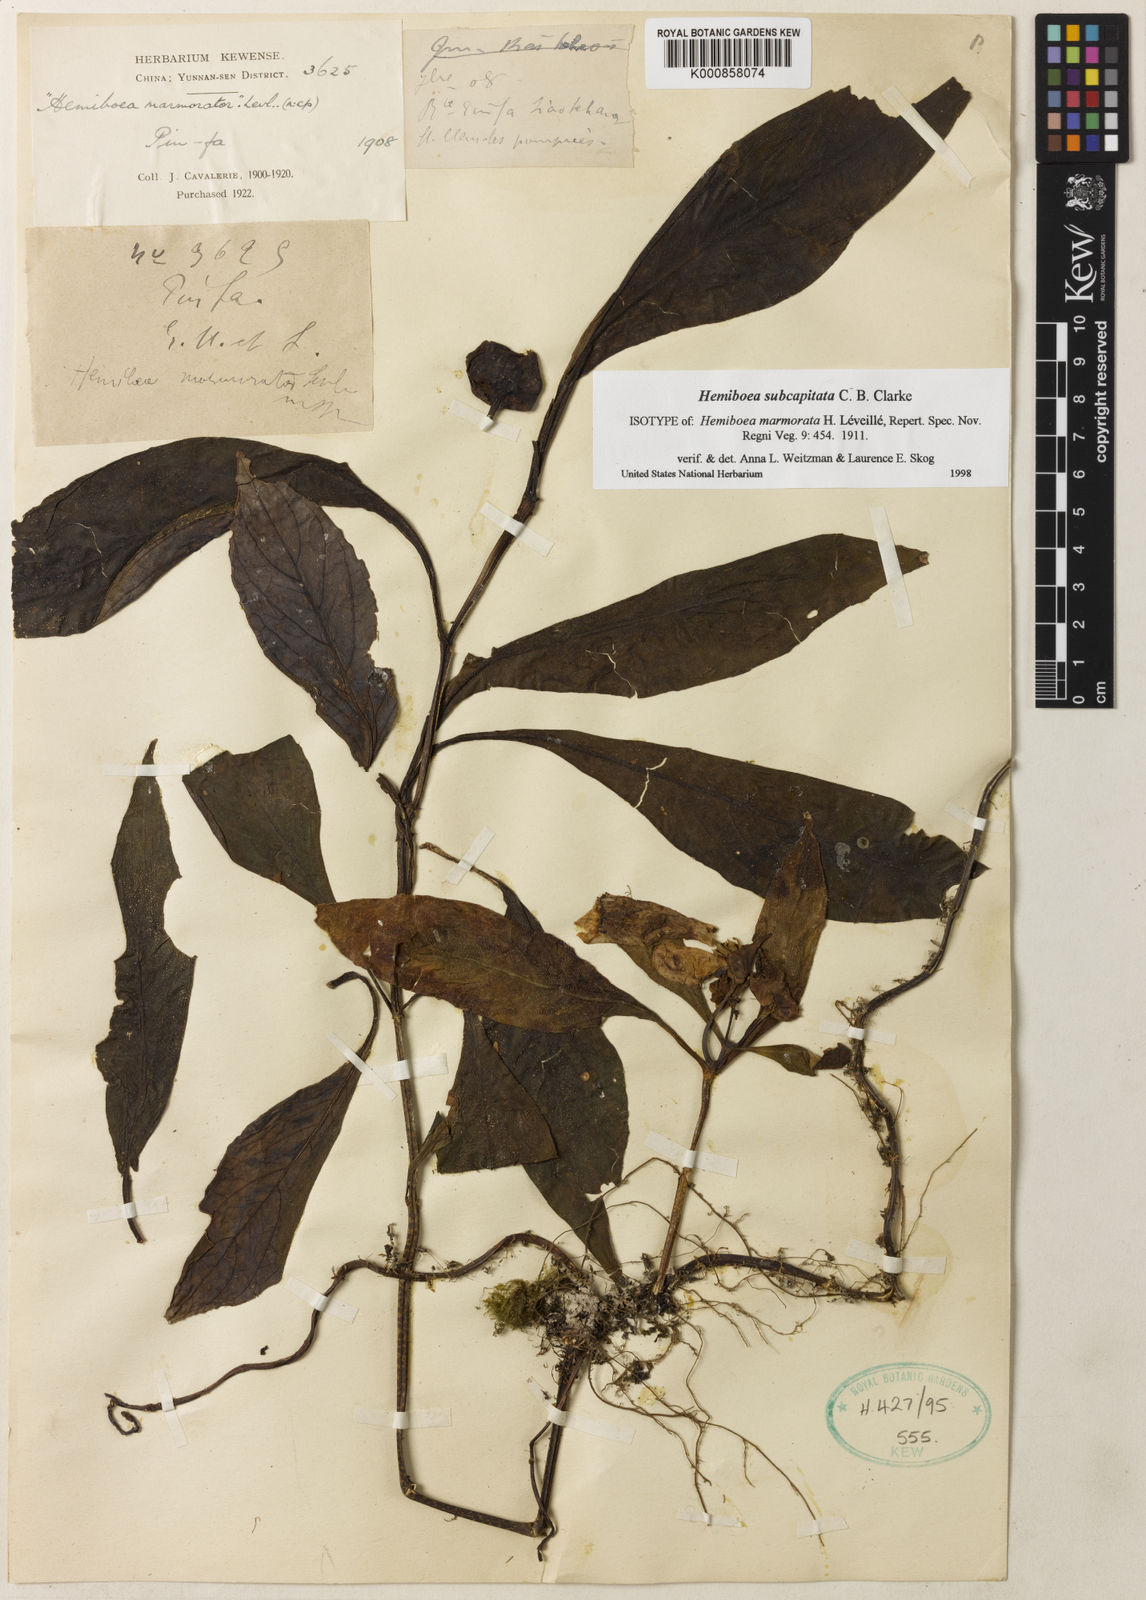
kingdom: Plantae
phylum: Tracheophyta
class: Magnoliopsida
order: Lamiales
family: Gesneriaceae
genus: Hemiboea
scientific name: Hemiboea subcapitata
